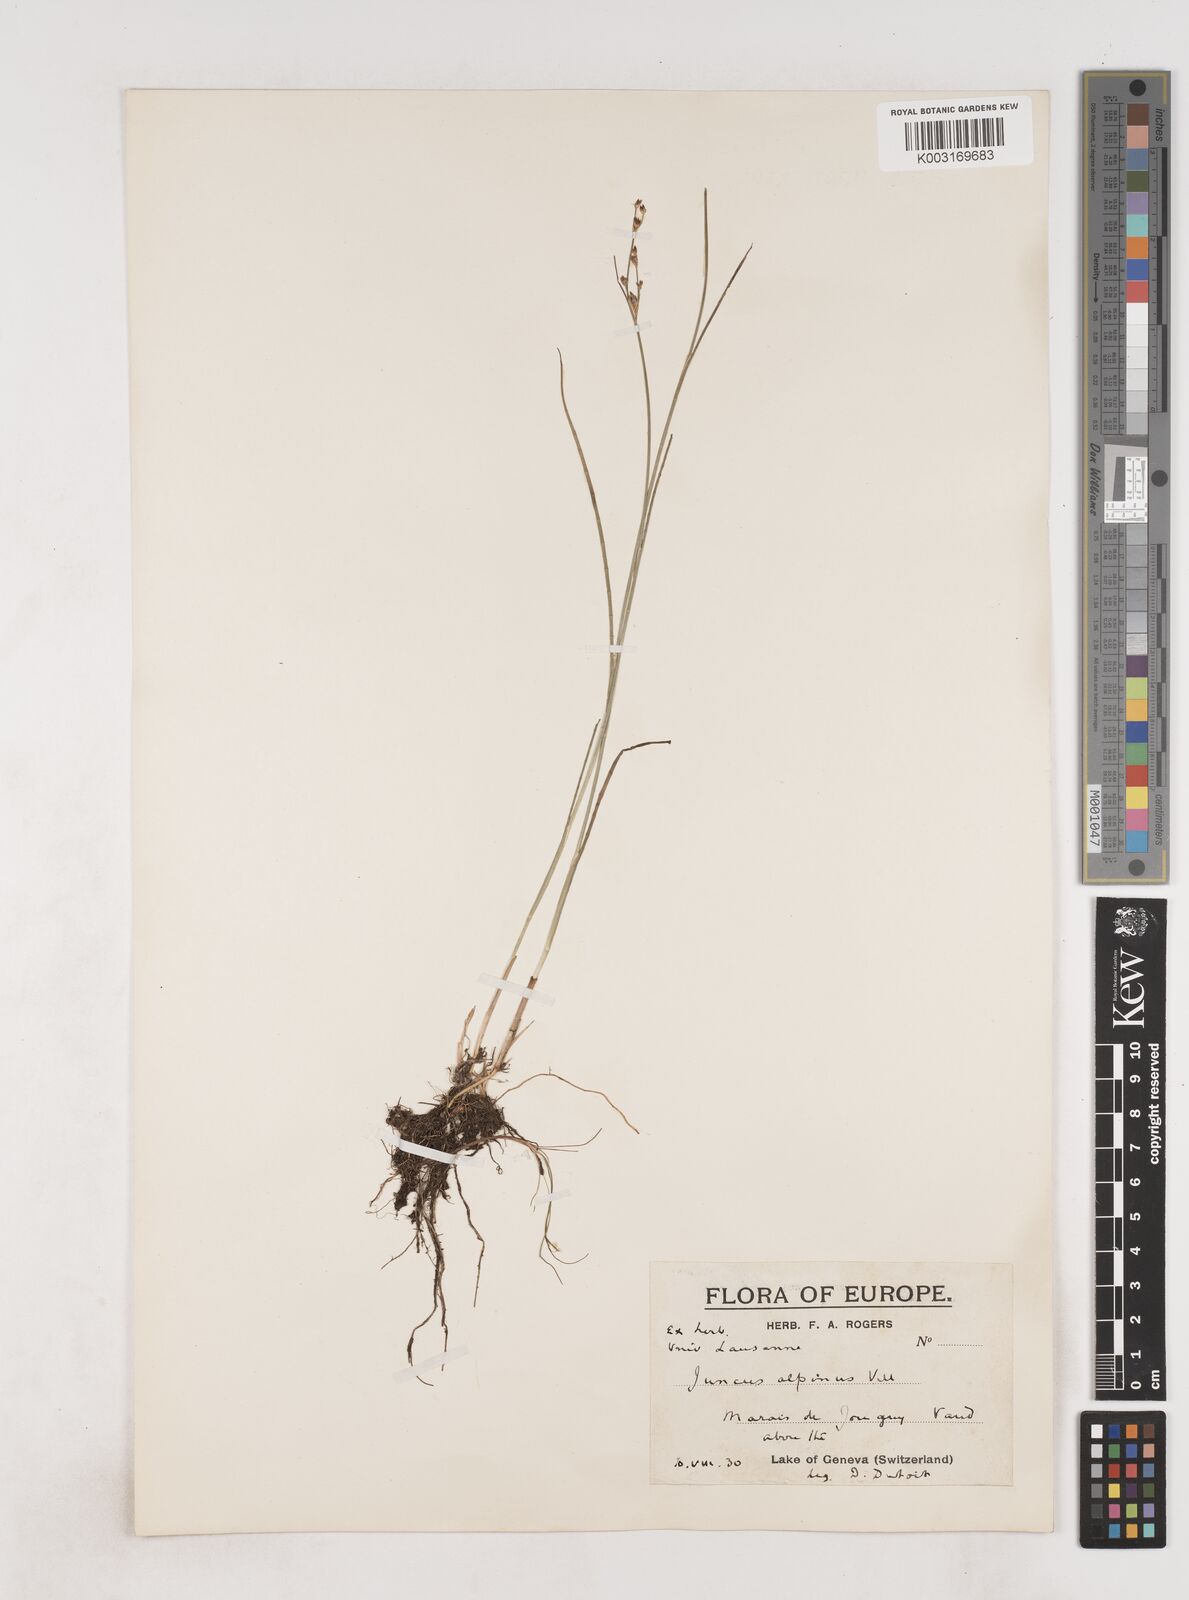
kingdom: Plantae
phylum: Tracheophyta
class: Liliopsida
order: Poales
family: Juncaceae
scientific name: Juncaceae
